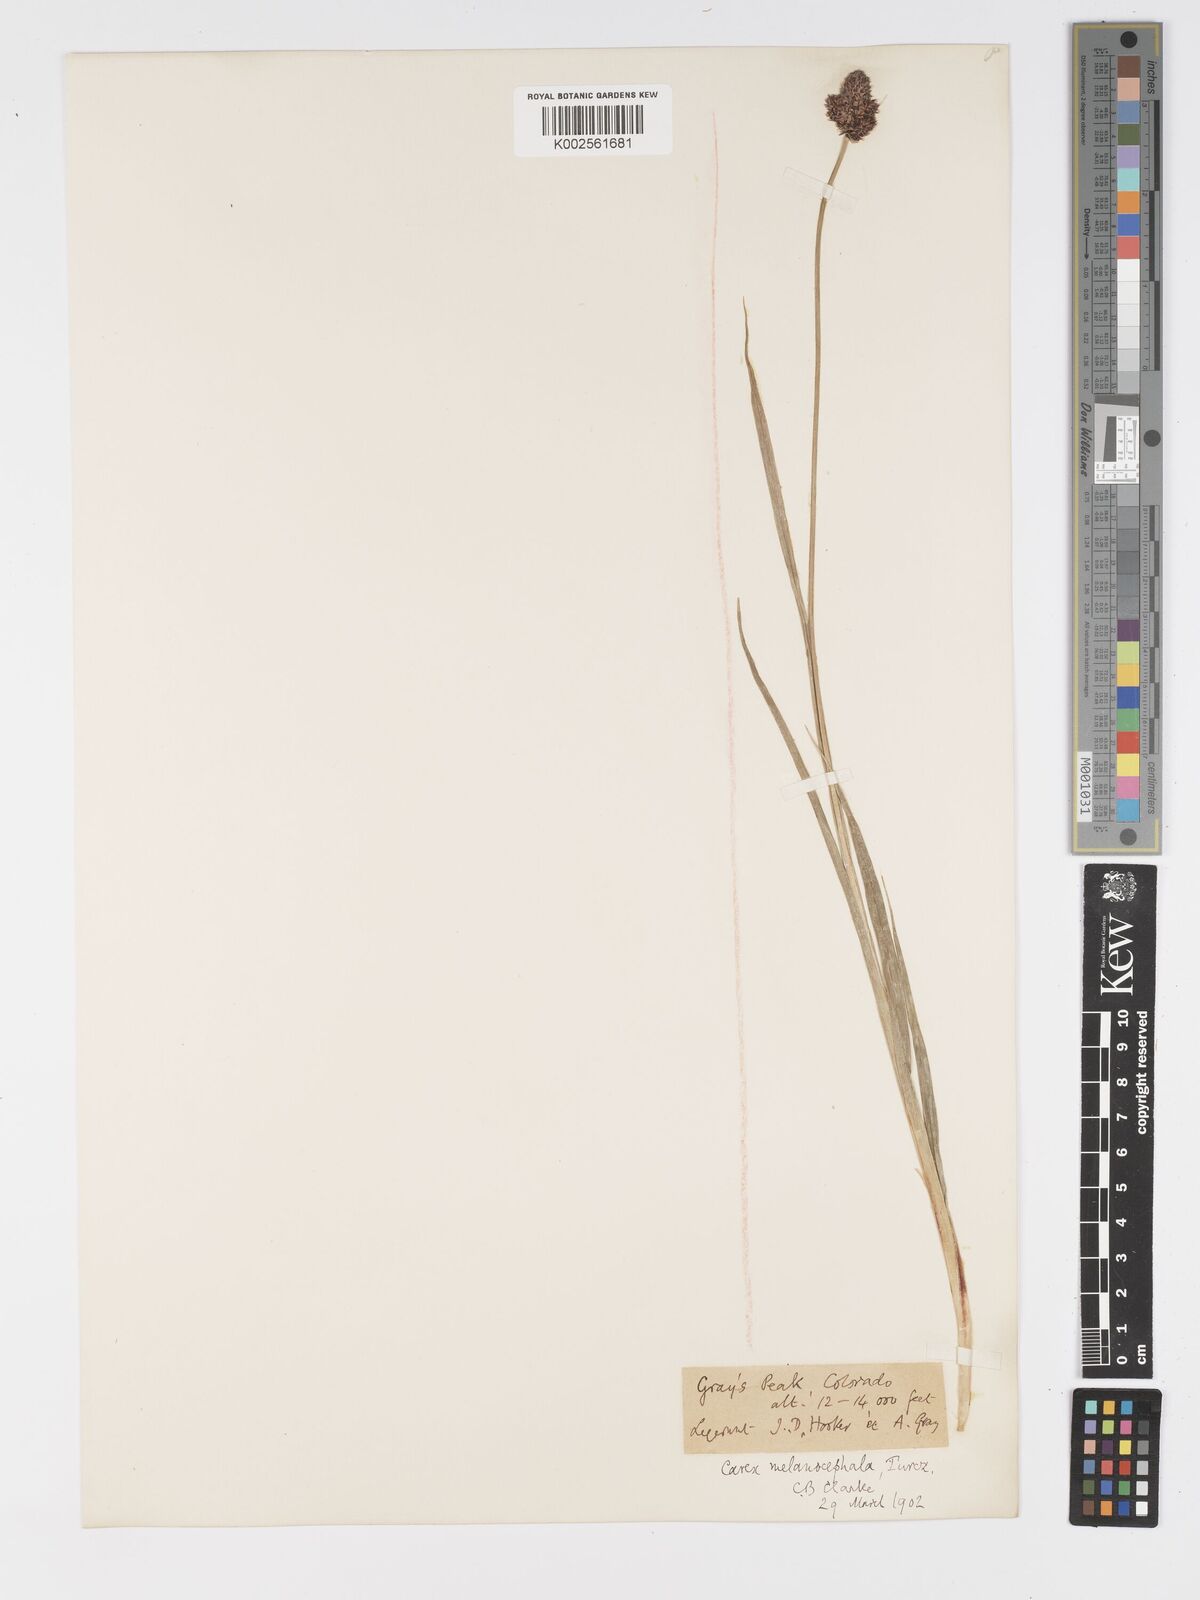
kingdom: Plantae
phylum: Tracheophyta
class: Liliopsida
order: Poales
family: Cyperaceae
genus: Carex
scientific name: Carex nova
